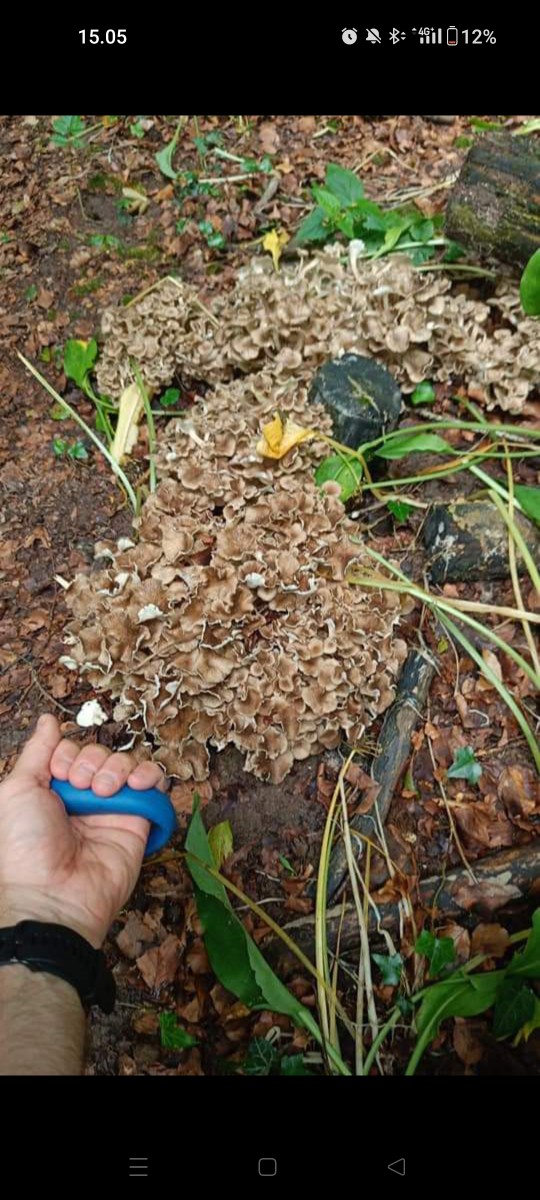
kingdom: Fungi
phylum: Basidiomycota
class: Agaricomycetes
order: Polyporales
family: Polyporaceae
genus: Polyporus
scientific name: Polyporus umbellatus
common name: skærmformet stilkporesvamp
